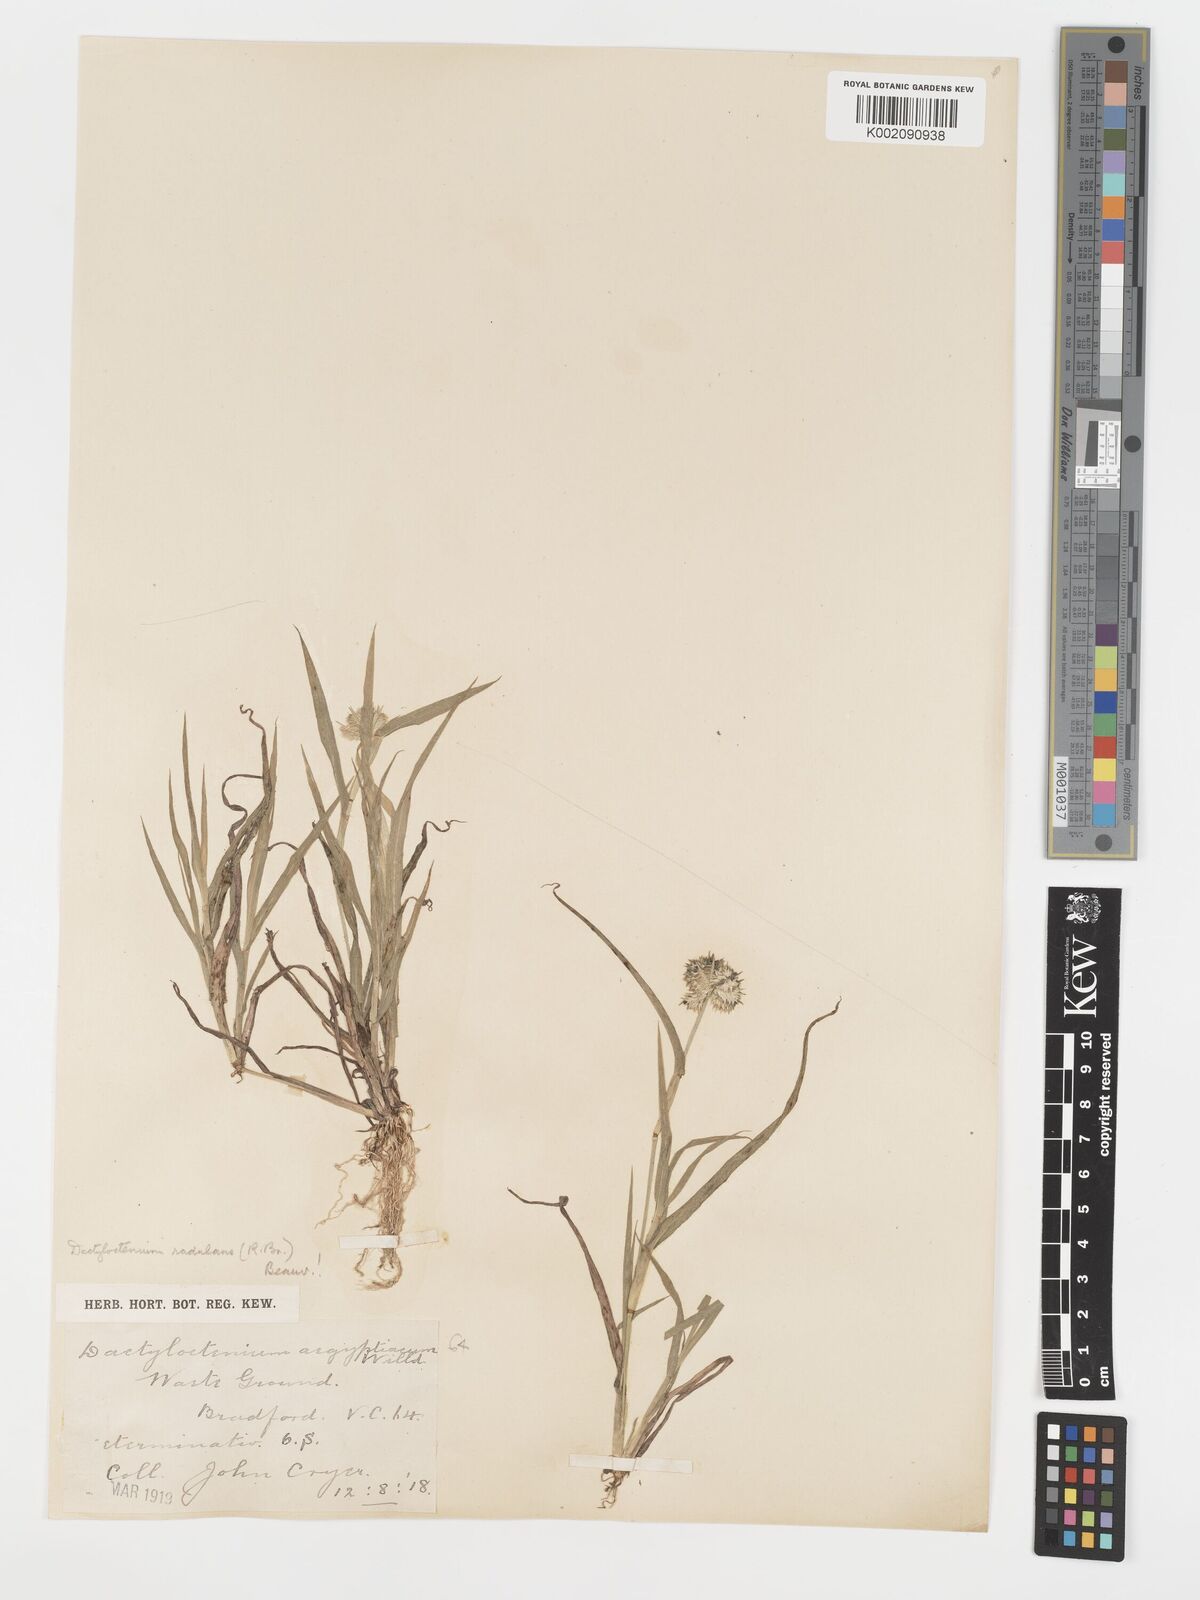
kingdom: Plantae
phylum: Tracheophyta
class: Liliopsida
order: Poales
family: Poaceae
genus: Dactyloctenium
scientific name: Dactyloctenium radulans
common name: Button-grass
